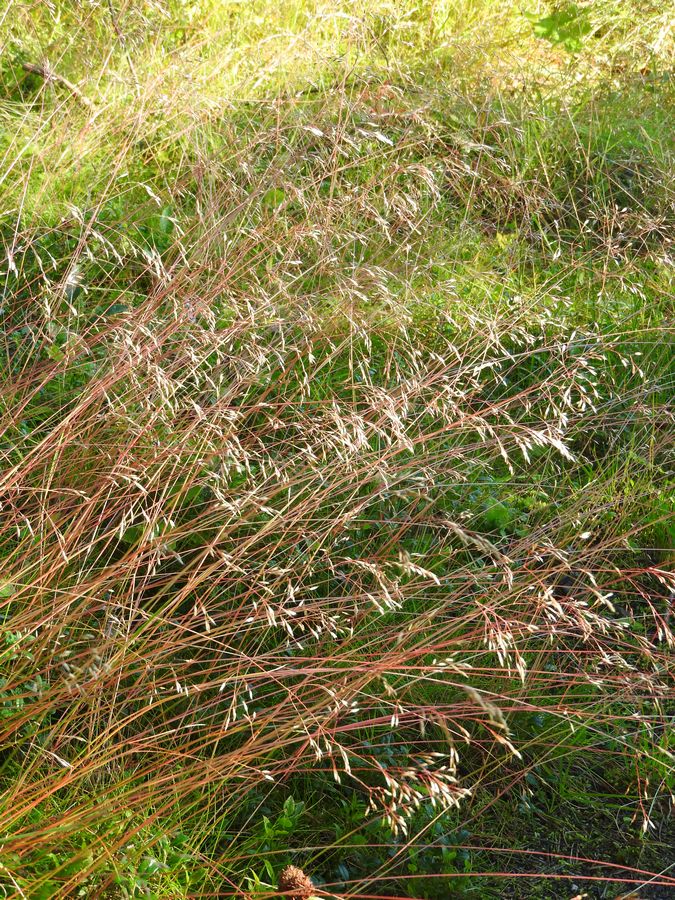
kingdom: Plantae
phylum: Tracheophyta
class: Liliopsida
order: Poales
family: Poaceae
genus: Deschampsia
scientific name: Deschampsia cespitosa
